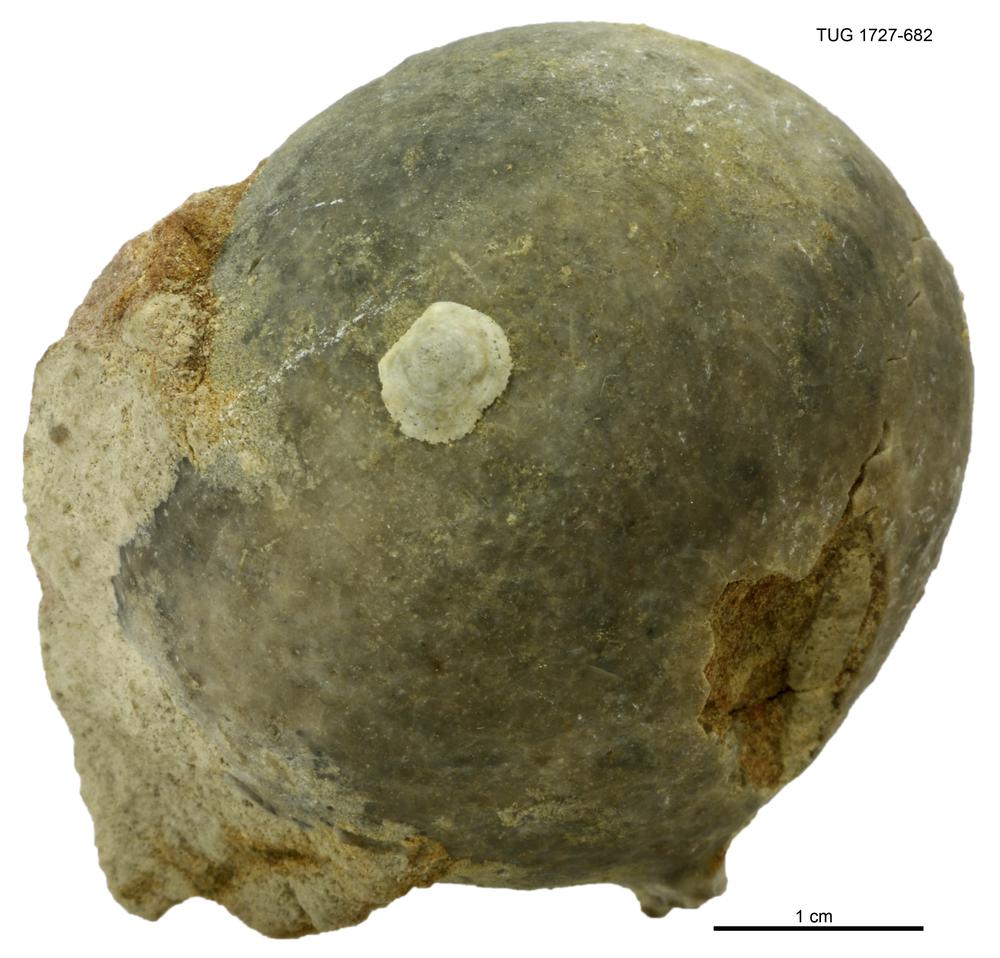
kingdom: Animalia
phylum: Echinodermata
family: Echinosphaeritidae
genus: Echinosphaerites
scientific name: Echinosphaerites
